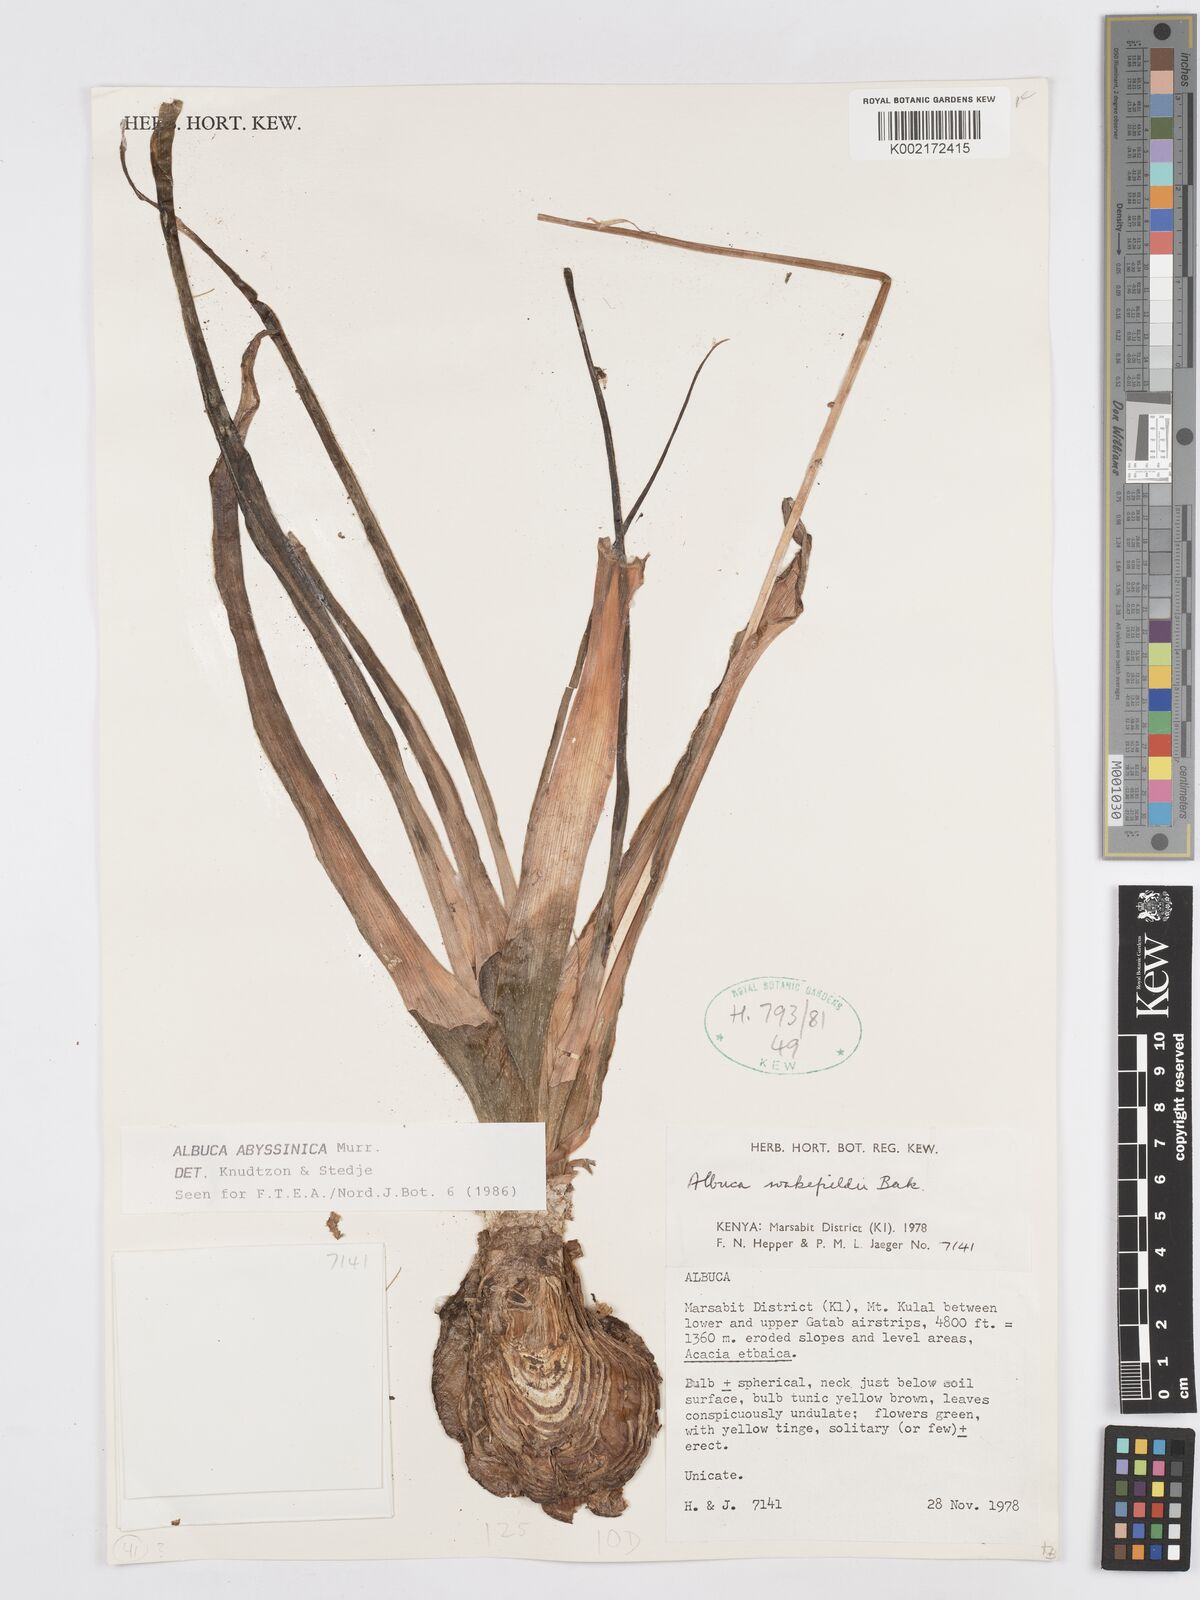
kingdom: Plantae
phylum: Tracheophyta
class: Liliopsida
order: Asparagales
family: Asparagaceae
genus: Albuca
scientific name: Albuca abyssinica
